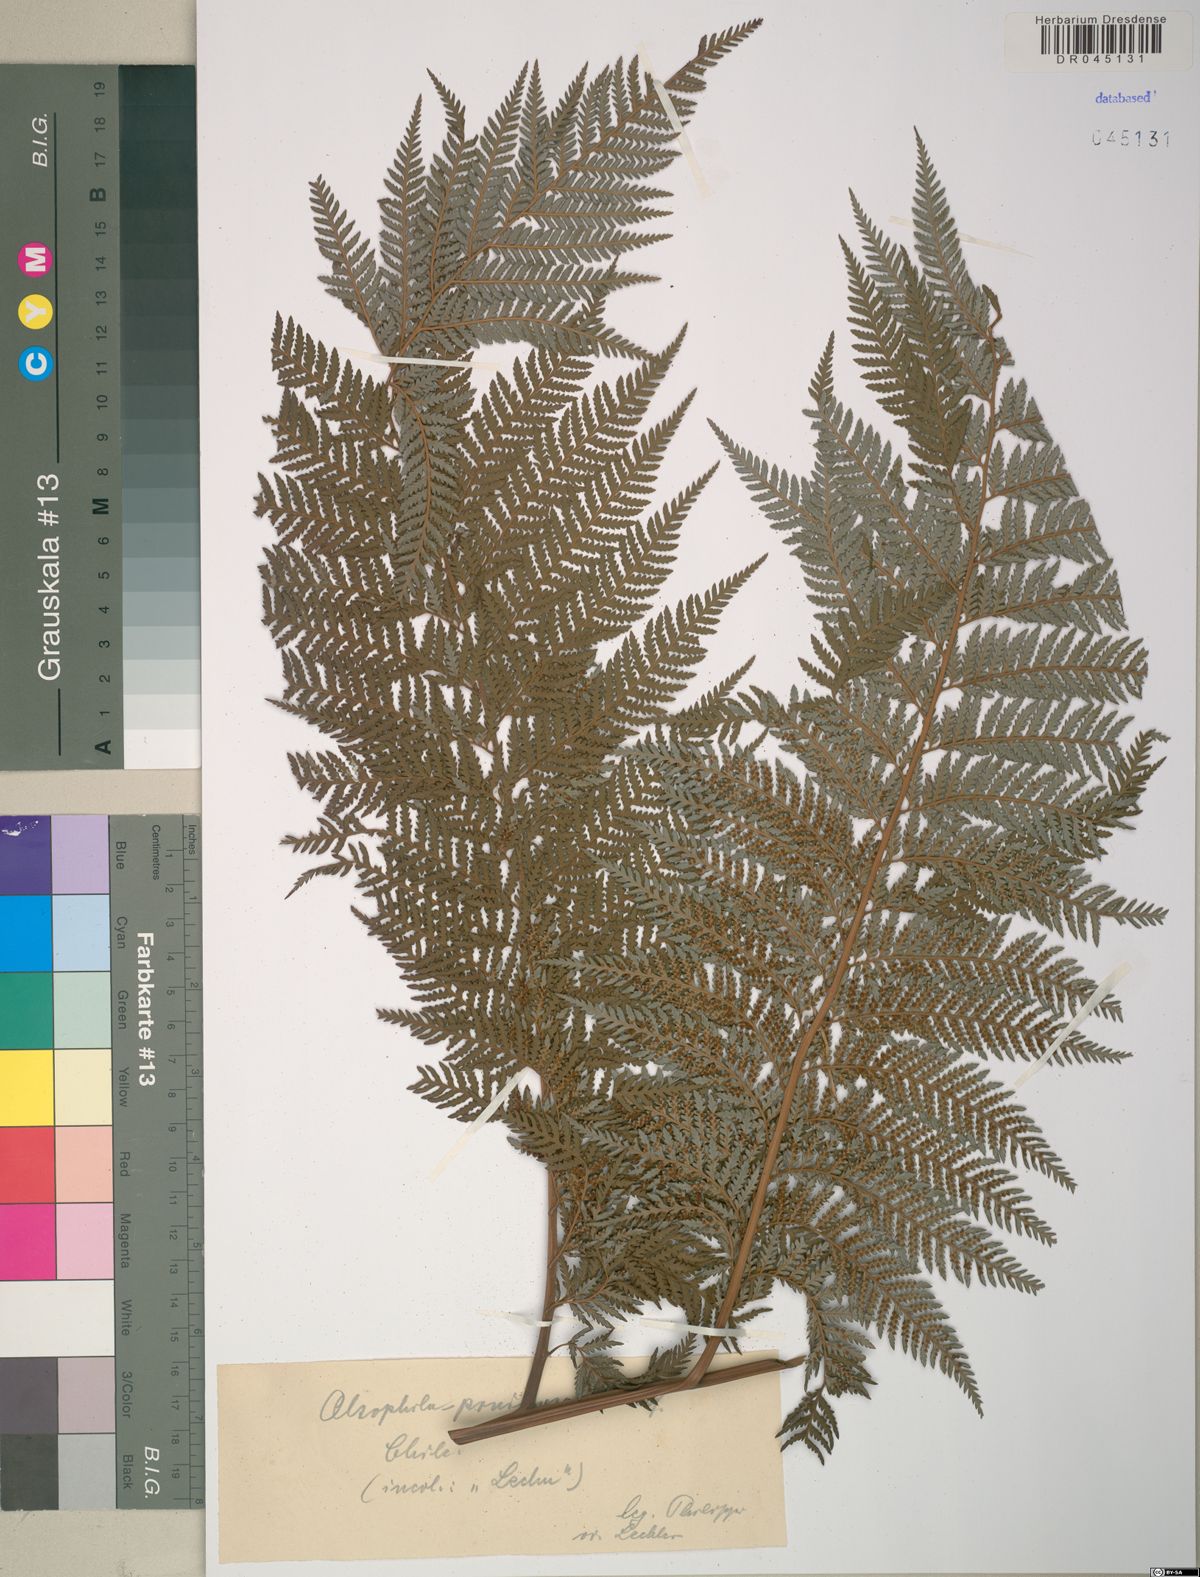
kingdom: Plantae
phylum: Tracheophyta
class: Polypodiopsida
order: Cyatheales
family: Cyatheaceae
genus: Alsophila
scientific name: Alsophila pruinosa
